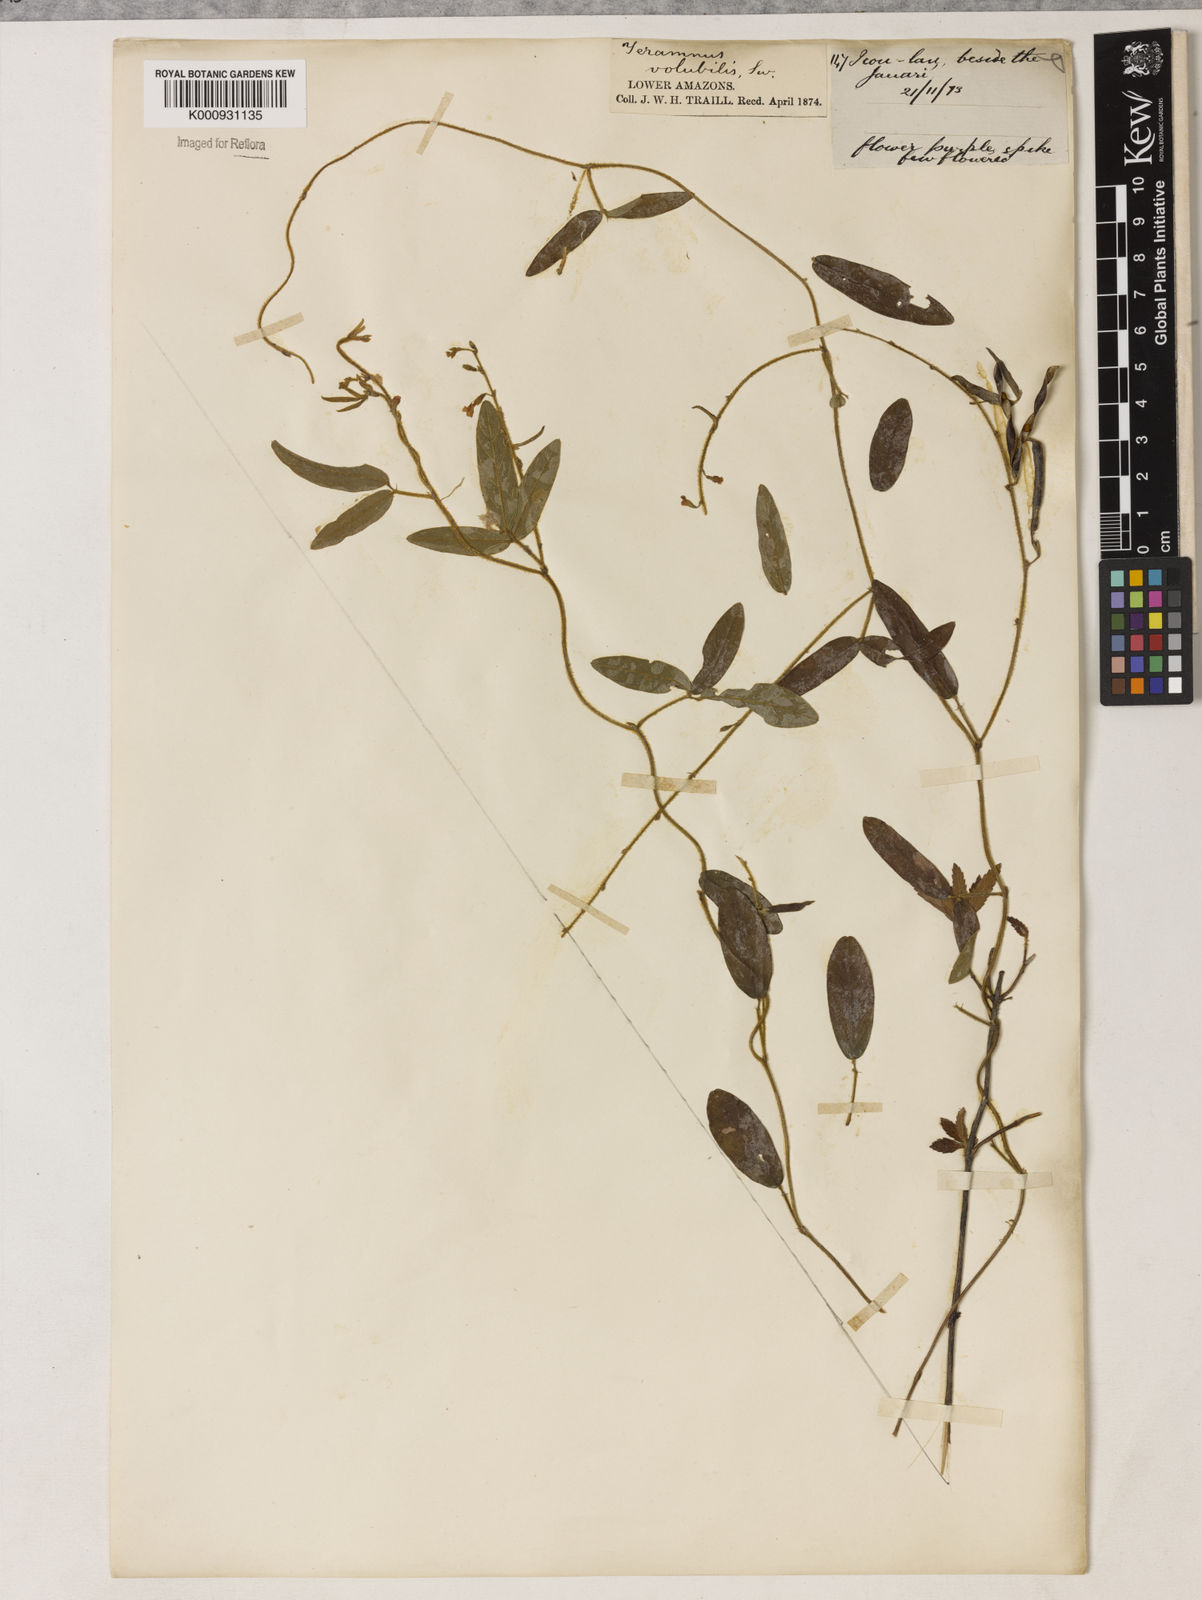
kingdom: Plantae
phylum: Tracheophyta
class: Magnoliopsida
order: Fabales
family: Fabaceae
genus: Teramnus
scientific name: Teramnus
